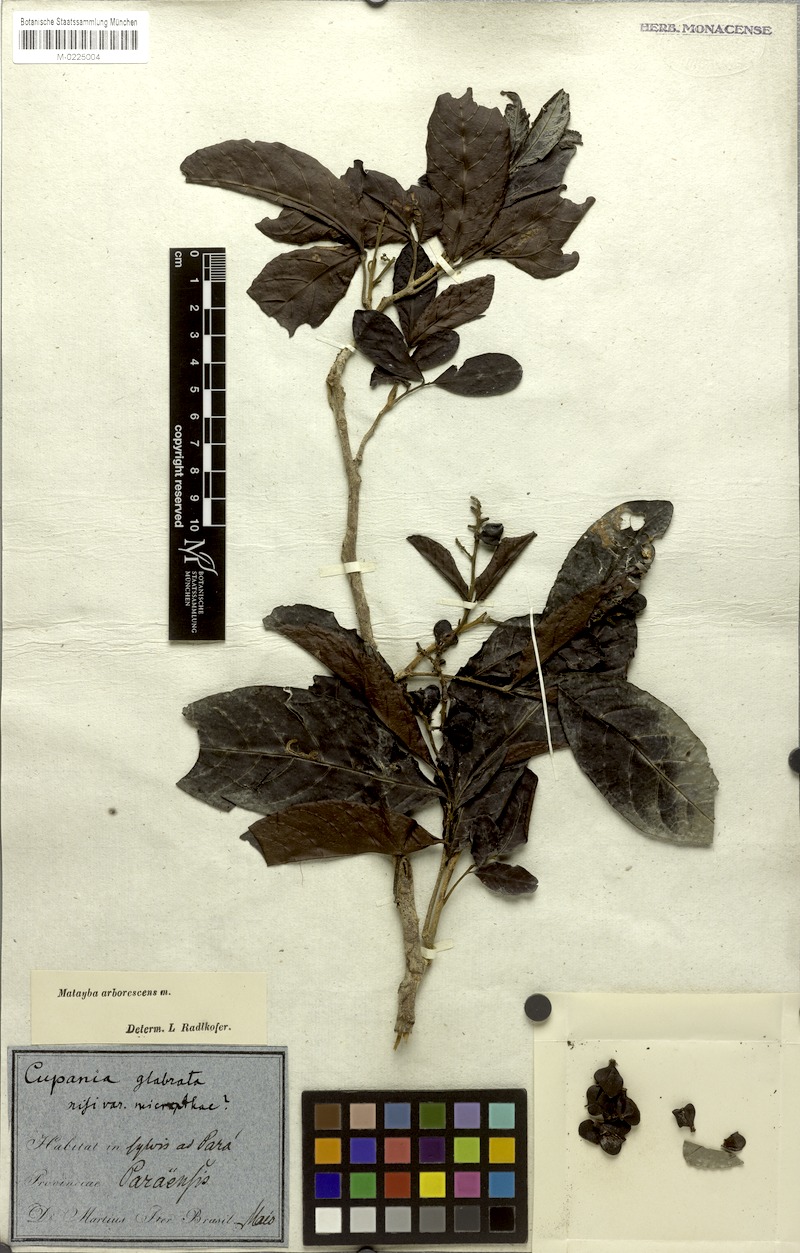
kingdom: Plantae
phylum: Tracheophyta
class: Magnoliopsida
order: Sapindales
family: Sapindaceae
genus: Matayba
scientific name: Matayba arborescens
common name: Arborescent matayba
